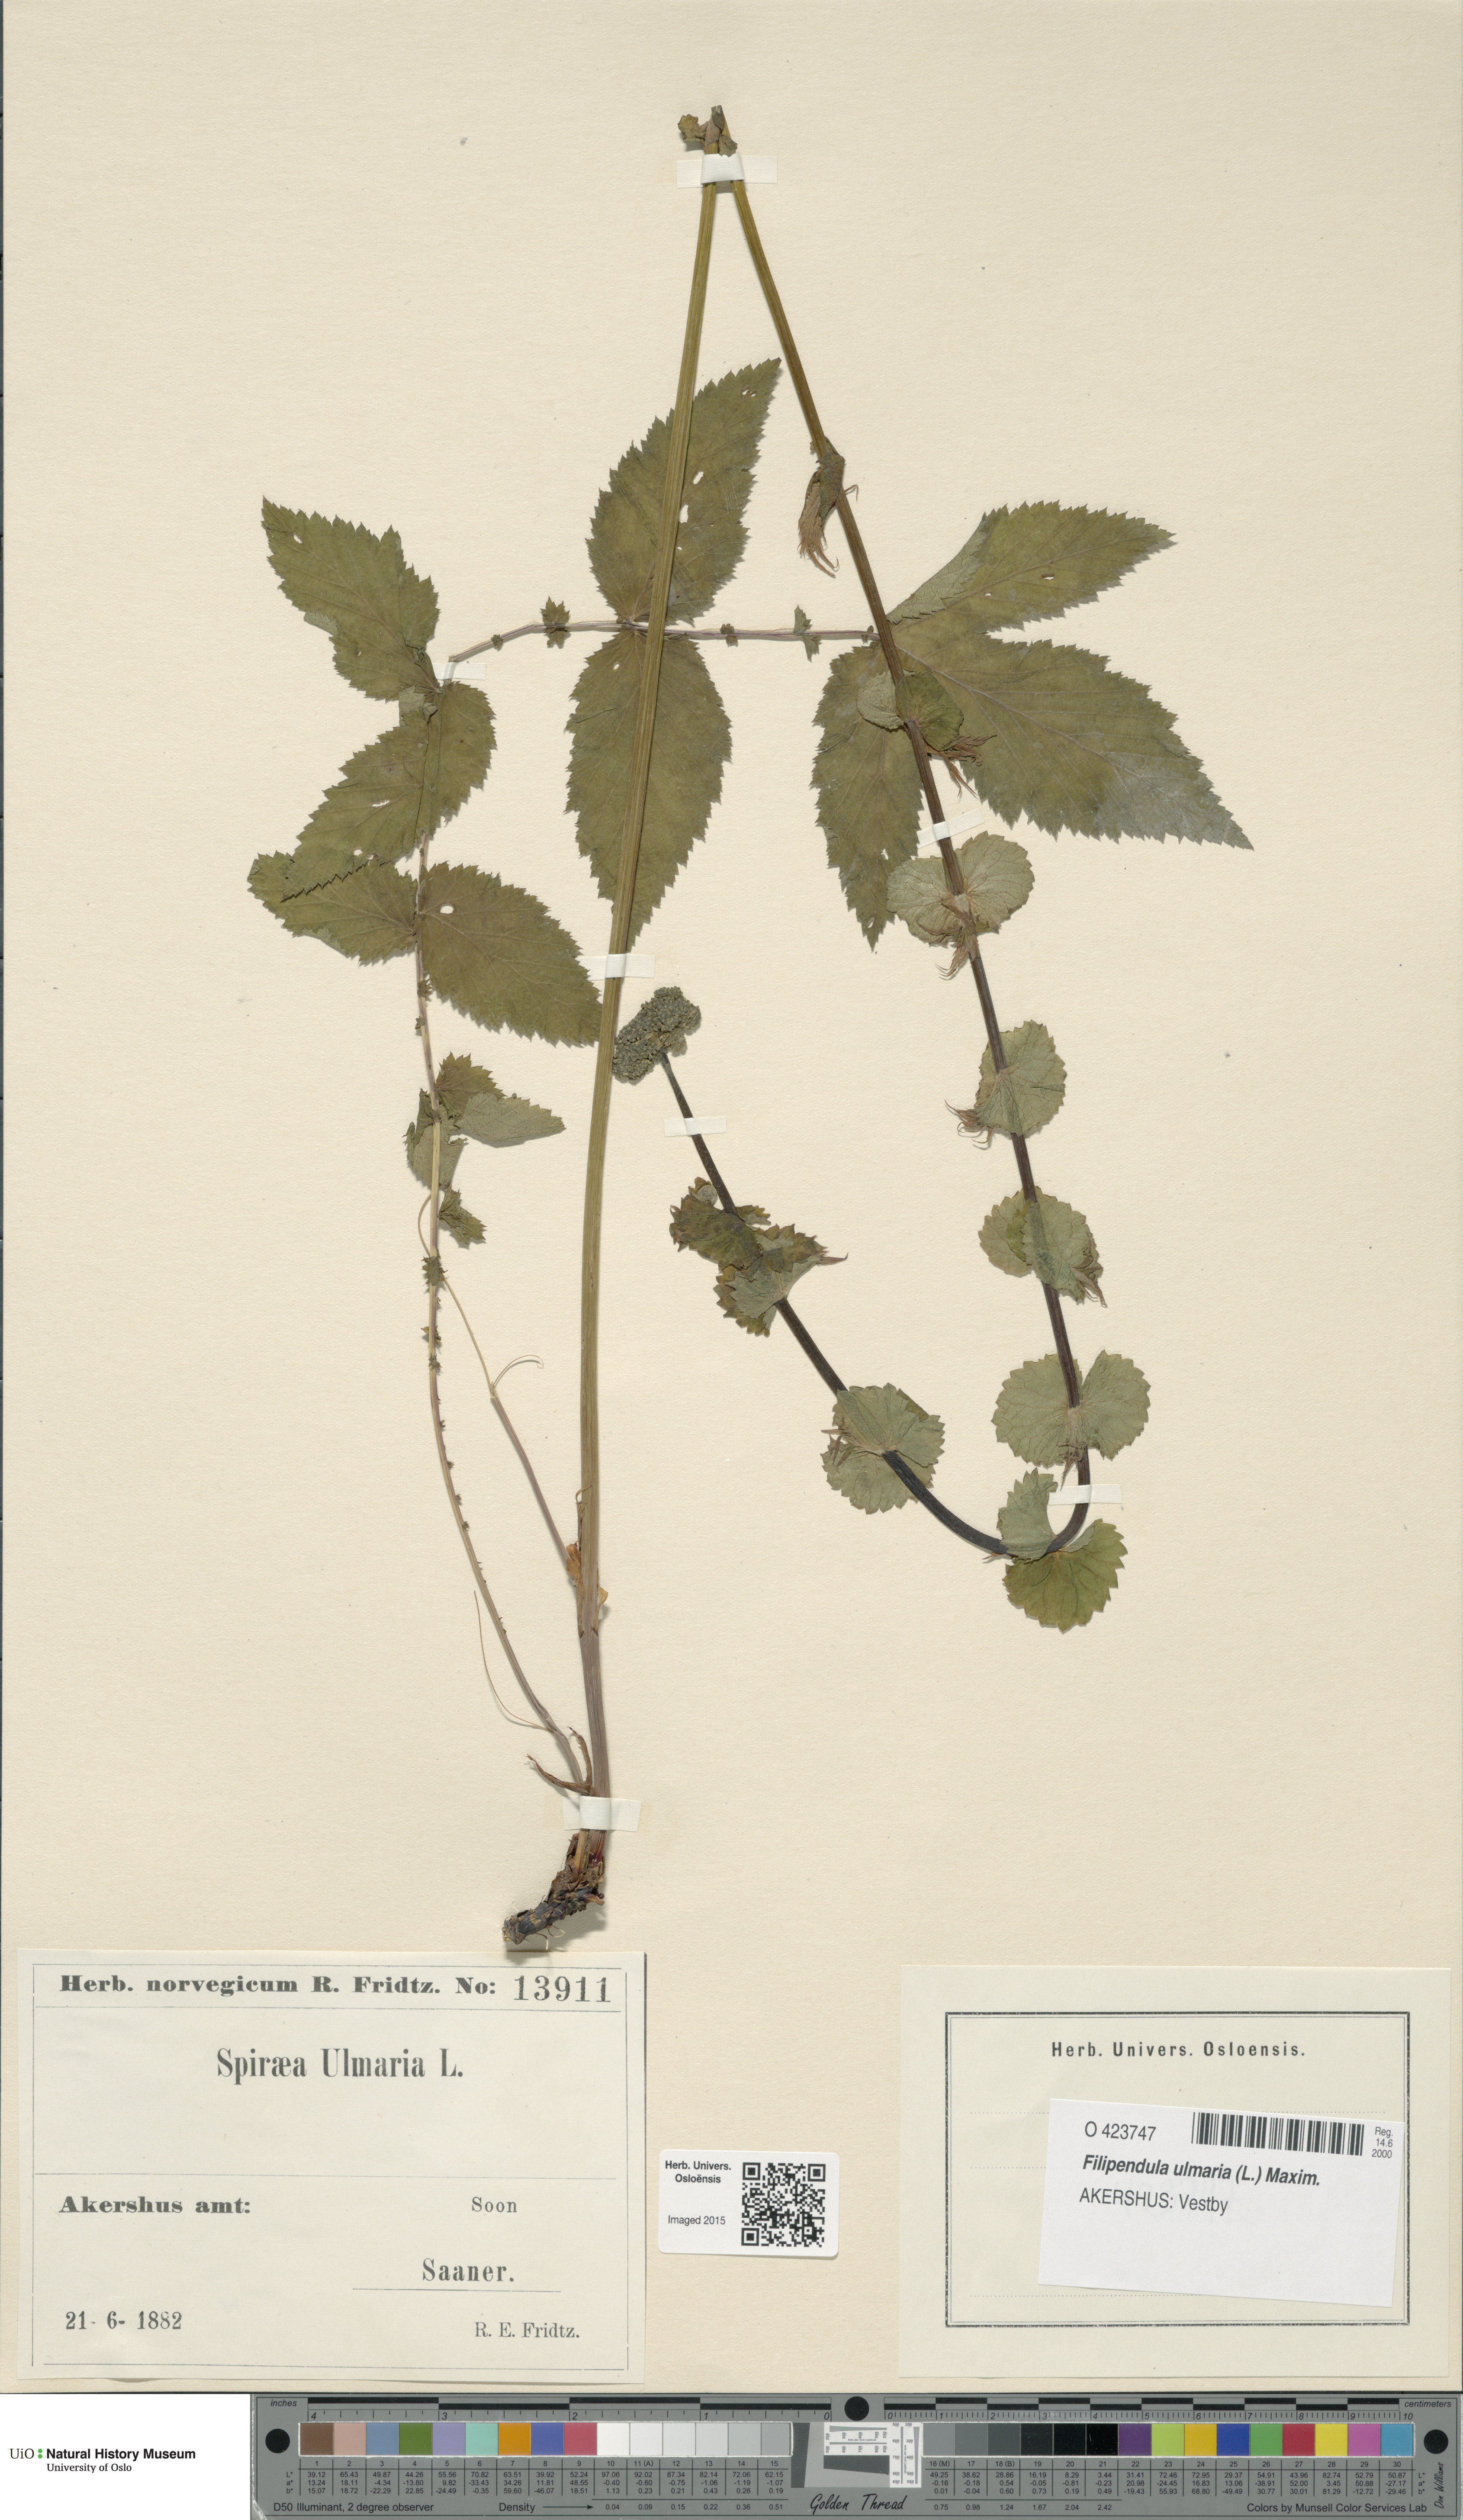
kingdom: Plantae
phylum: Tracheophyta
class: Magnoliopsida
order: Rosales
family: Rosaceae
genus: Filipendula
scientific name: Filipendula ulmaria
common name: Meadowsweet
